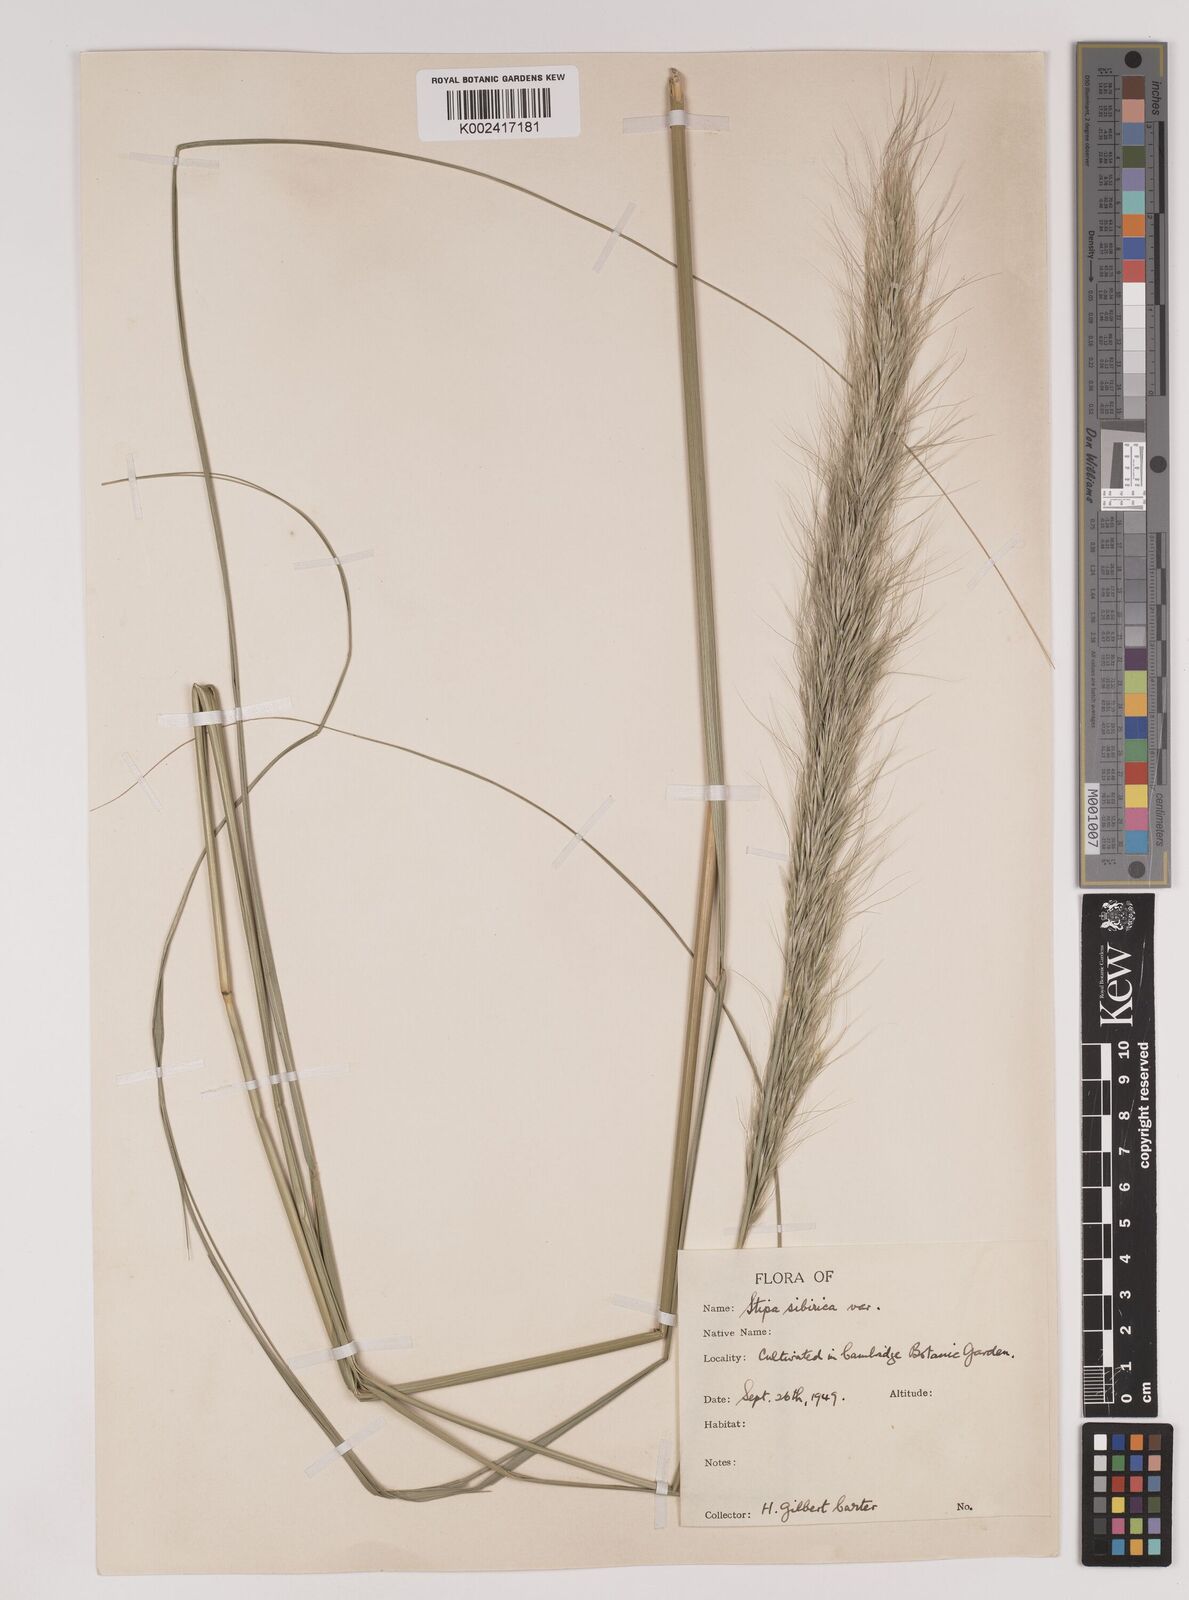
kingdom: Plantae
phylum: Tracheophyta
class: Liliopsida
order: Poales
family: Poaceae
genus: Achnatherum
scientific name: Achnatherum sibiricum
